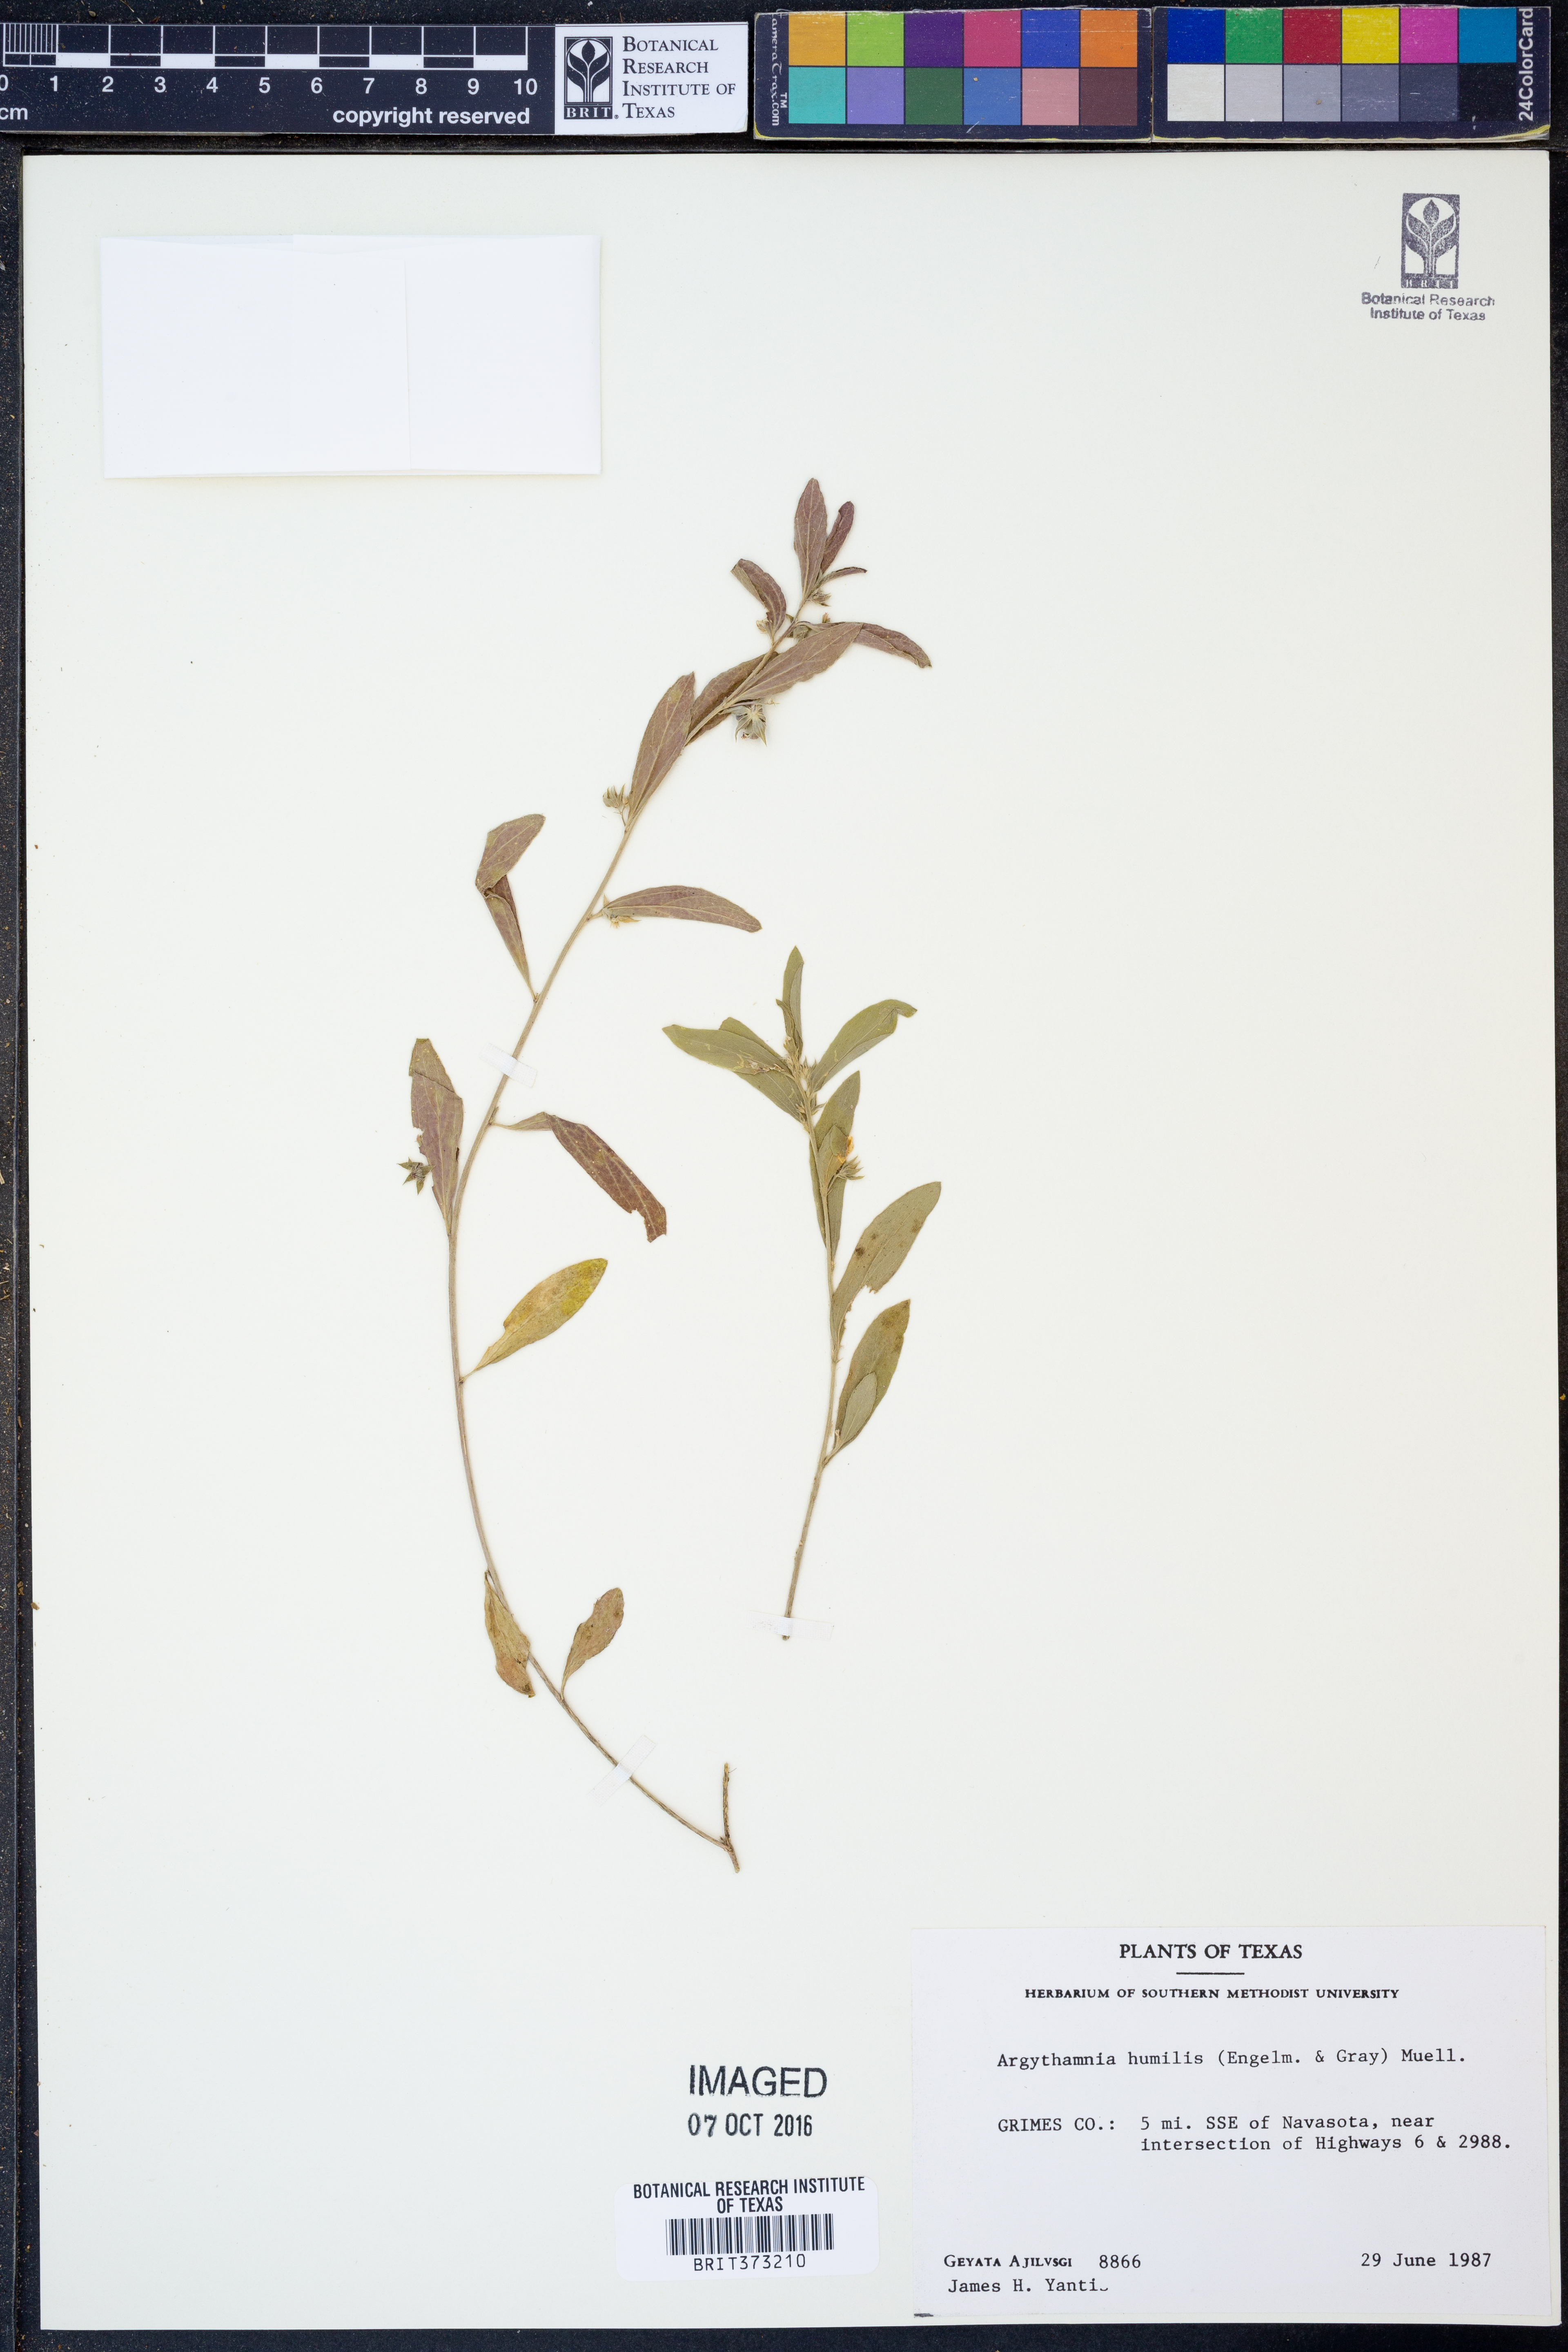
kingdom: Plantae
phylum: Tracheophyta
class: Magnoliopsida
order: Malpighiales
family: Euphorbiaceae
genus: Ditaxis
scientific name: Ditaxis humilis
